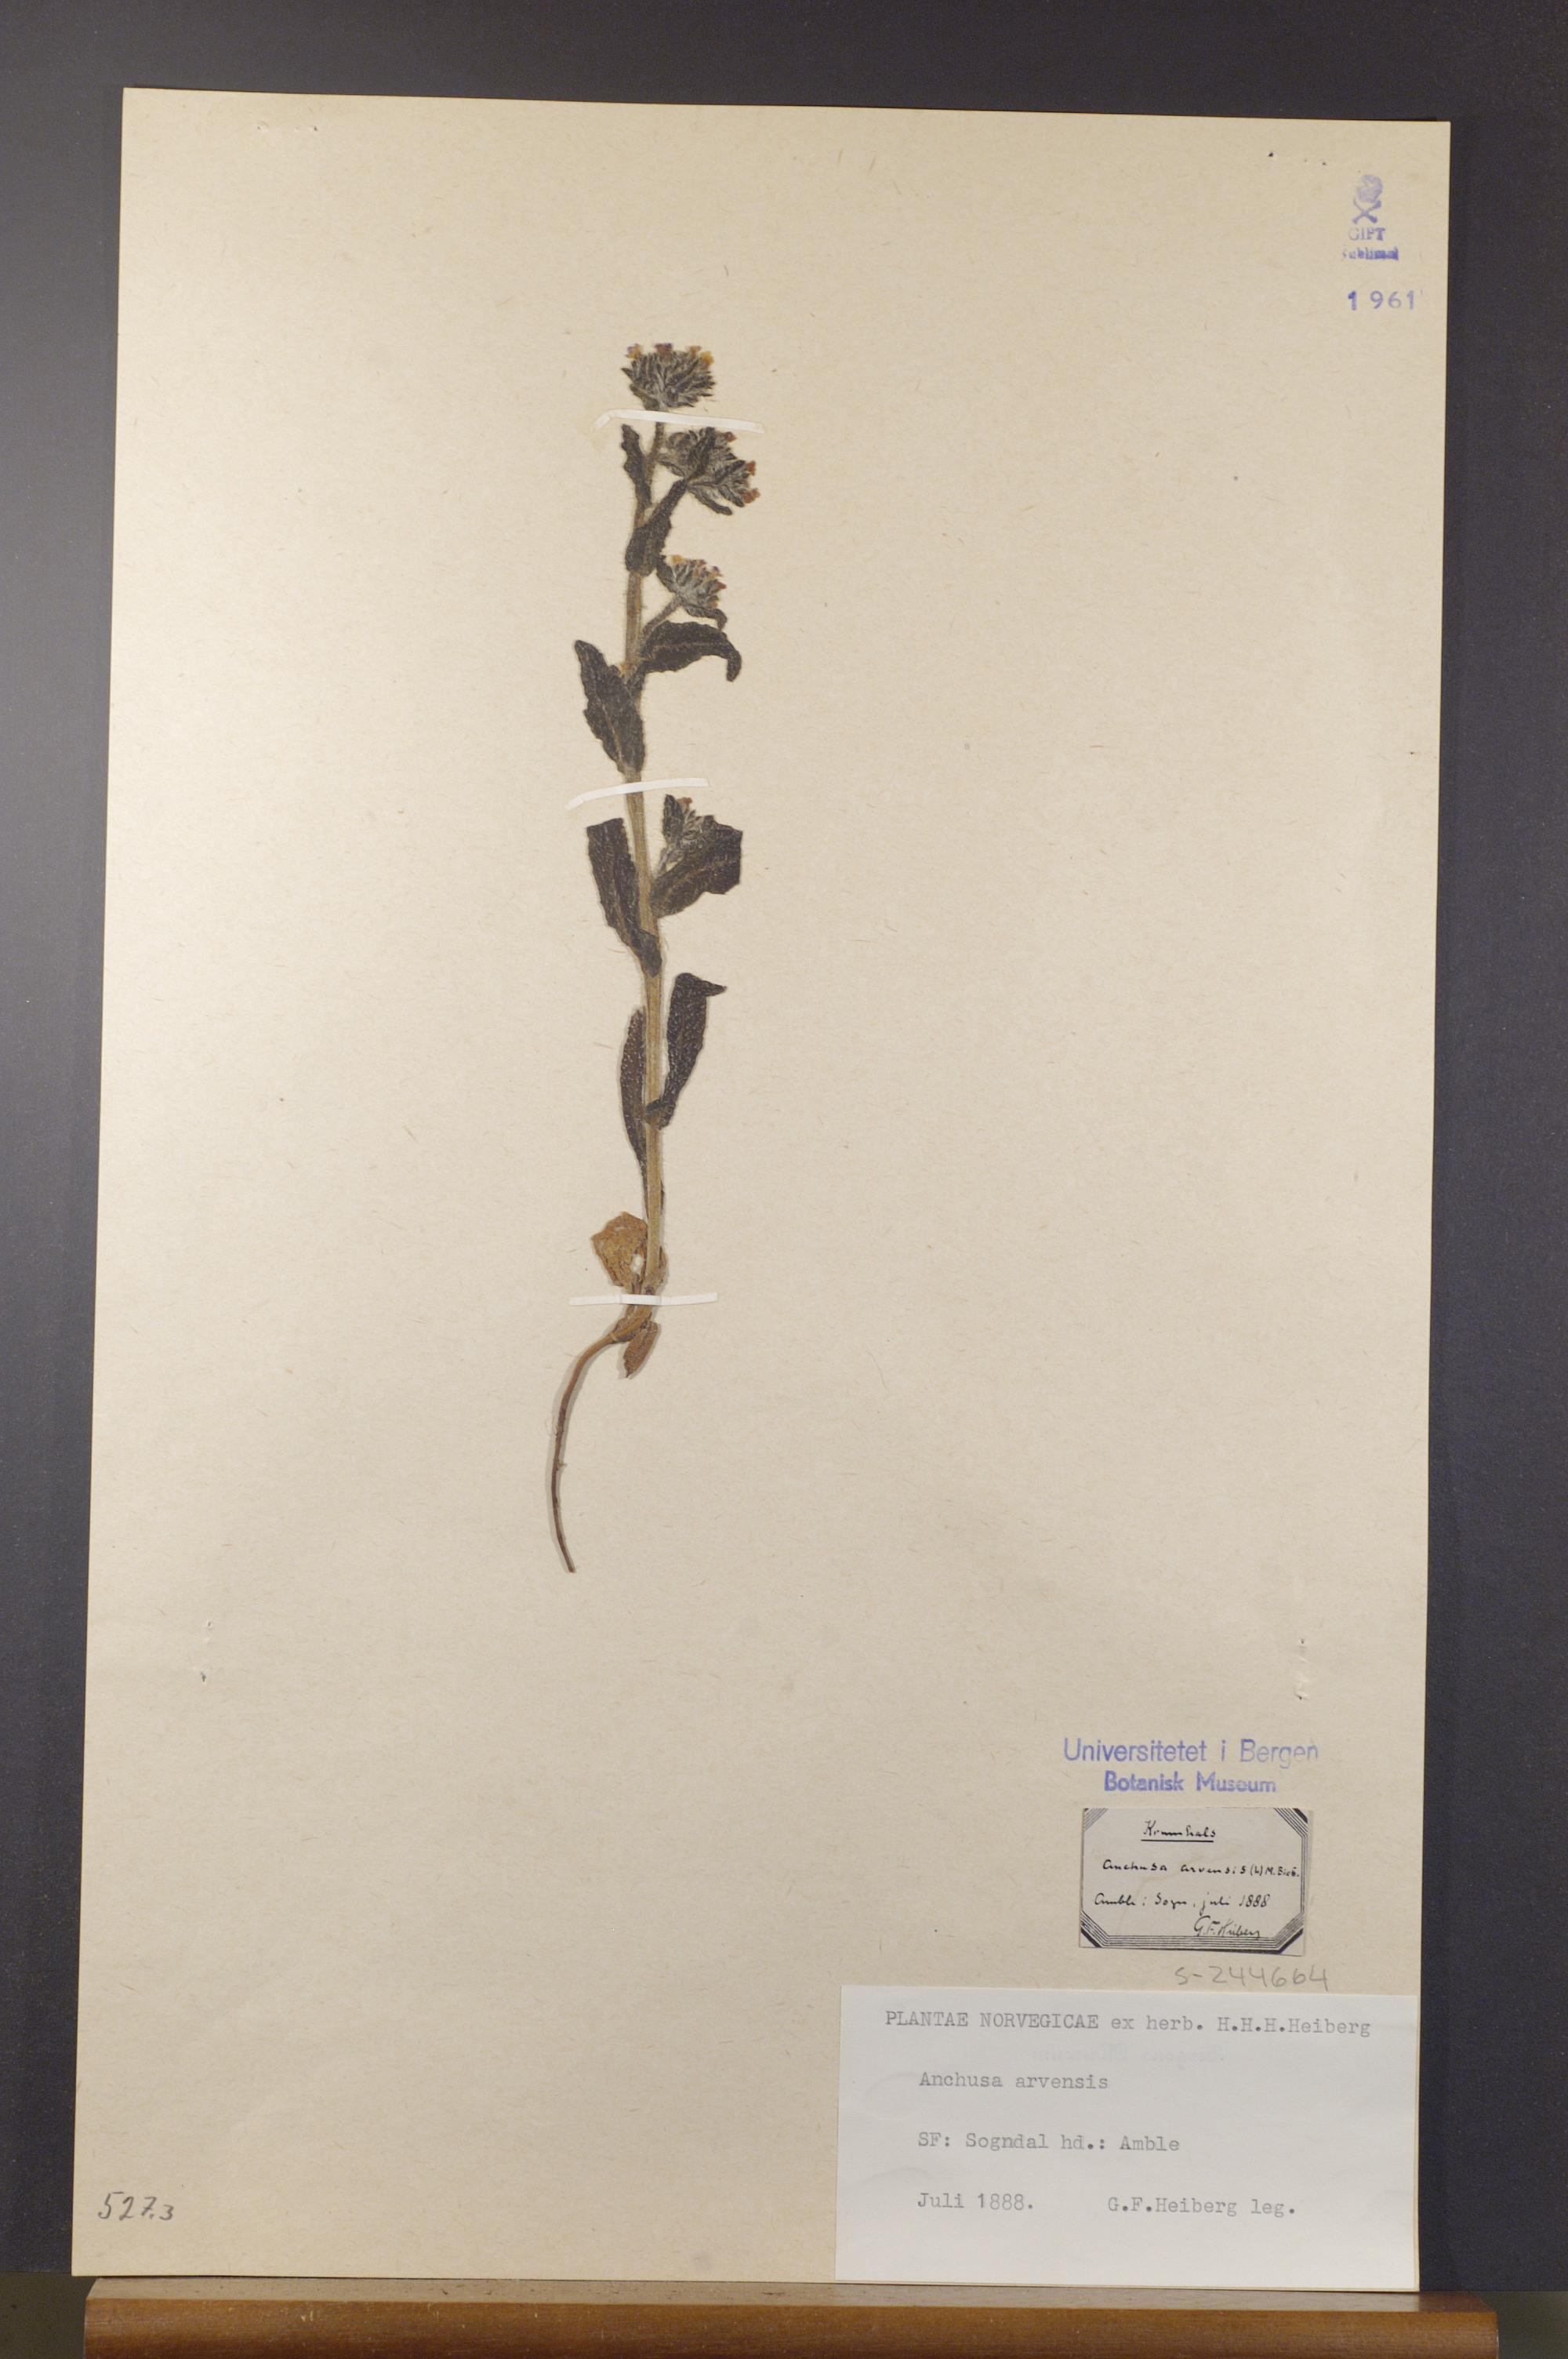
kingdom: Plantae
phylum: Tracheophyta
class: Magnoliopsida
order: Boraginales
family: Boraginaceae
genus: Lycopsis
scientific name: Lycopsis arvensis
